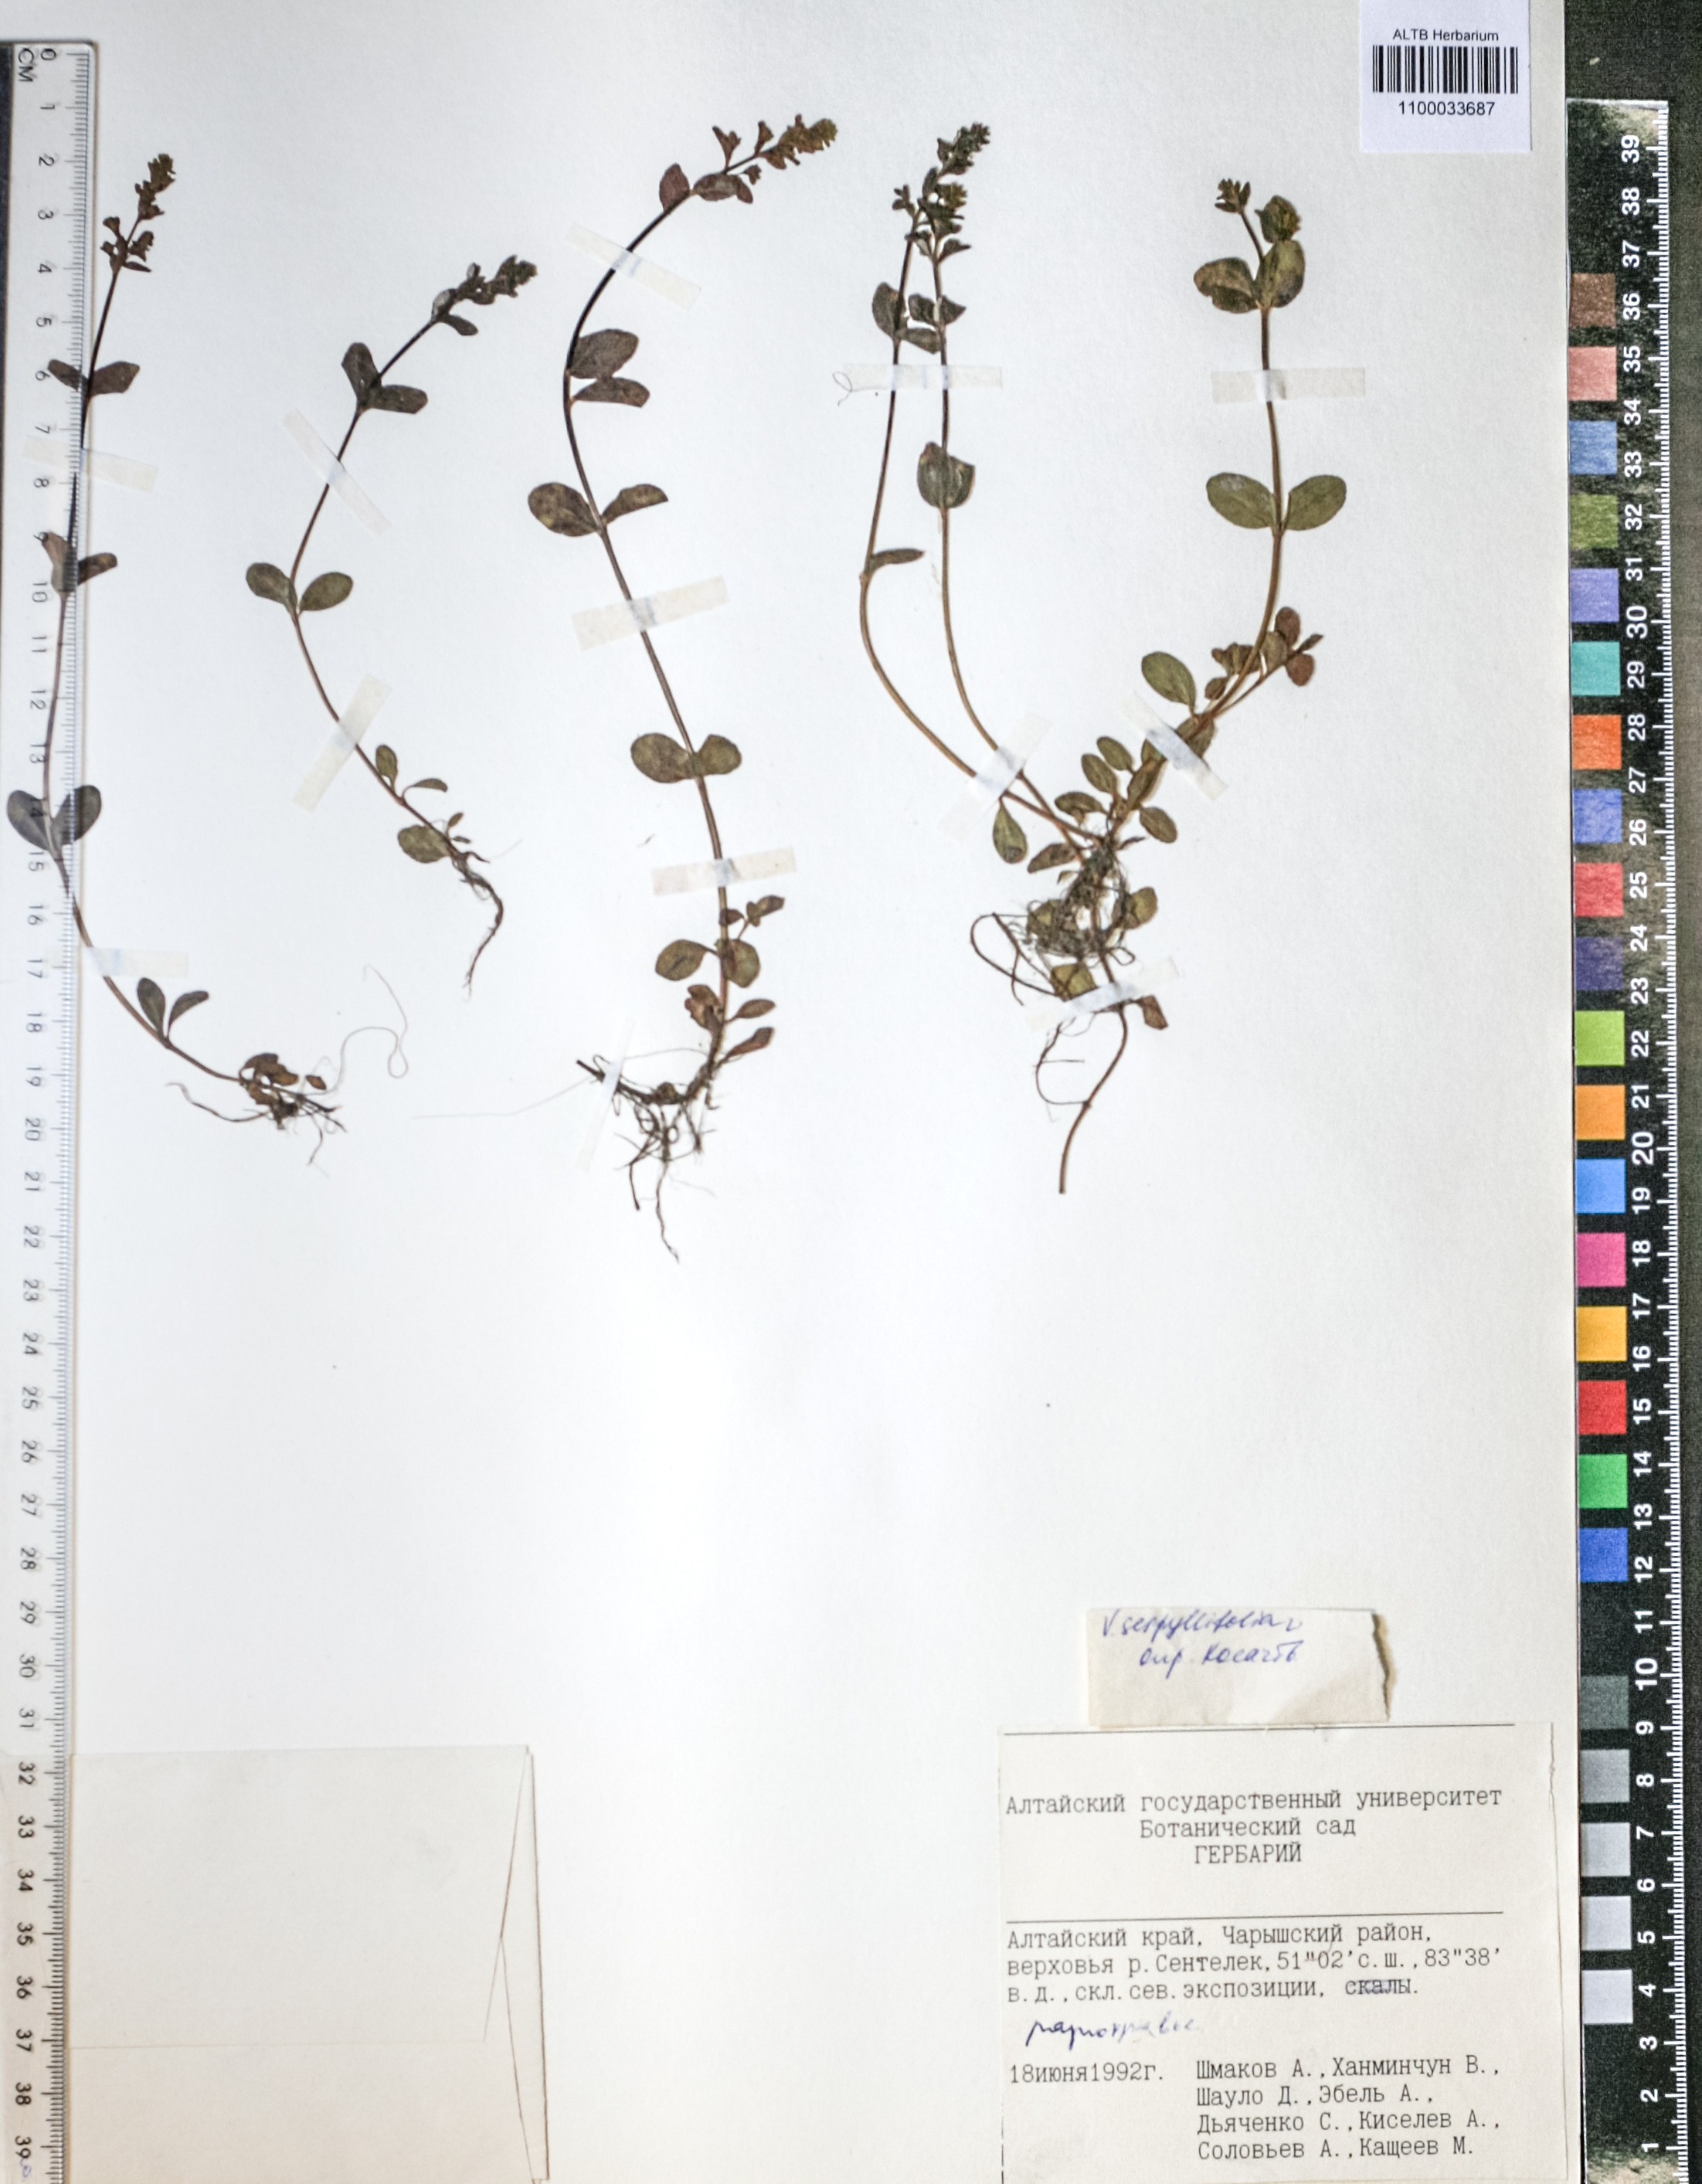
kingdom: Plantae
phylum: Tracheophyta
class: Magnoliopsida
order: Lamiales
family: Plantaginaceae
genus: Veronica
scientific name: Veronica serpyllifolia
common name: Thyme-leaved speedwell
